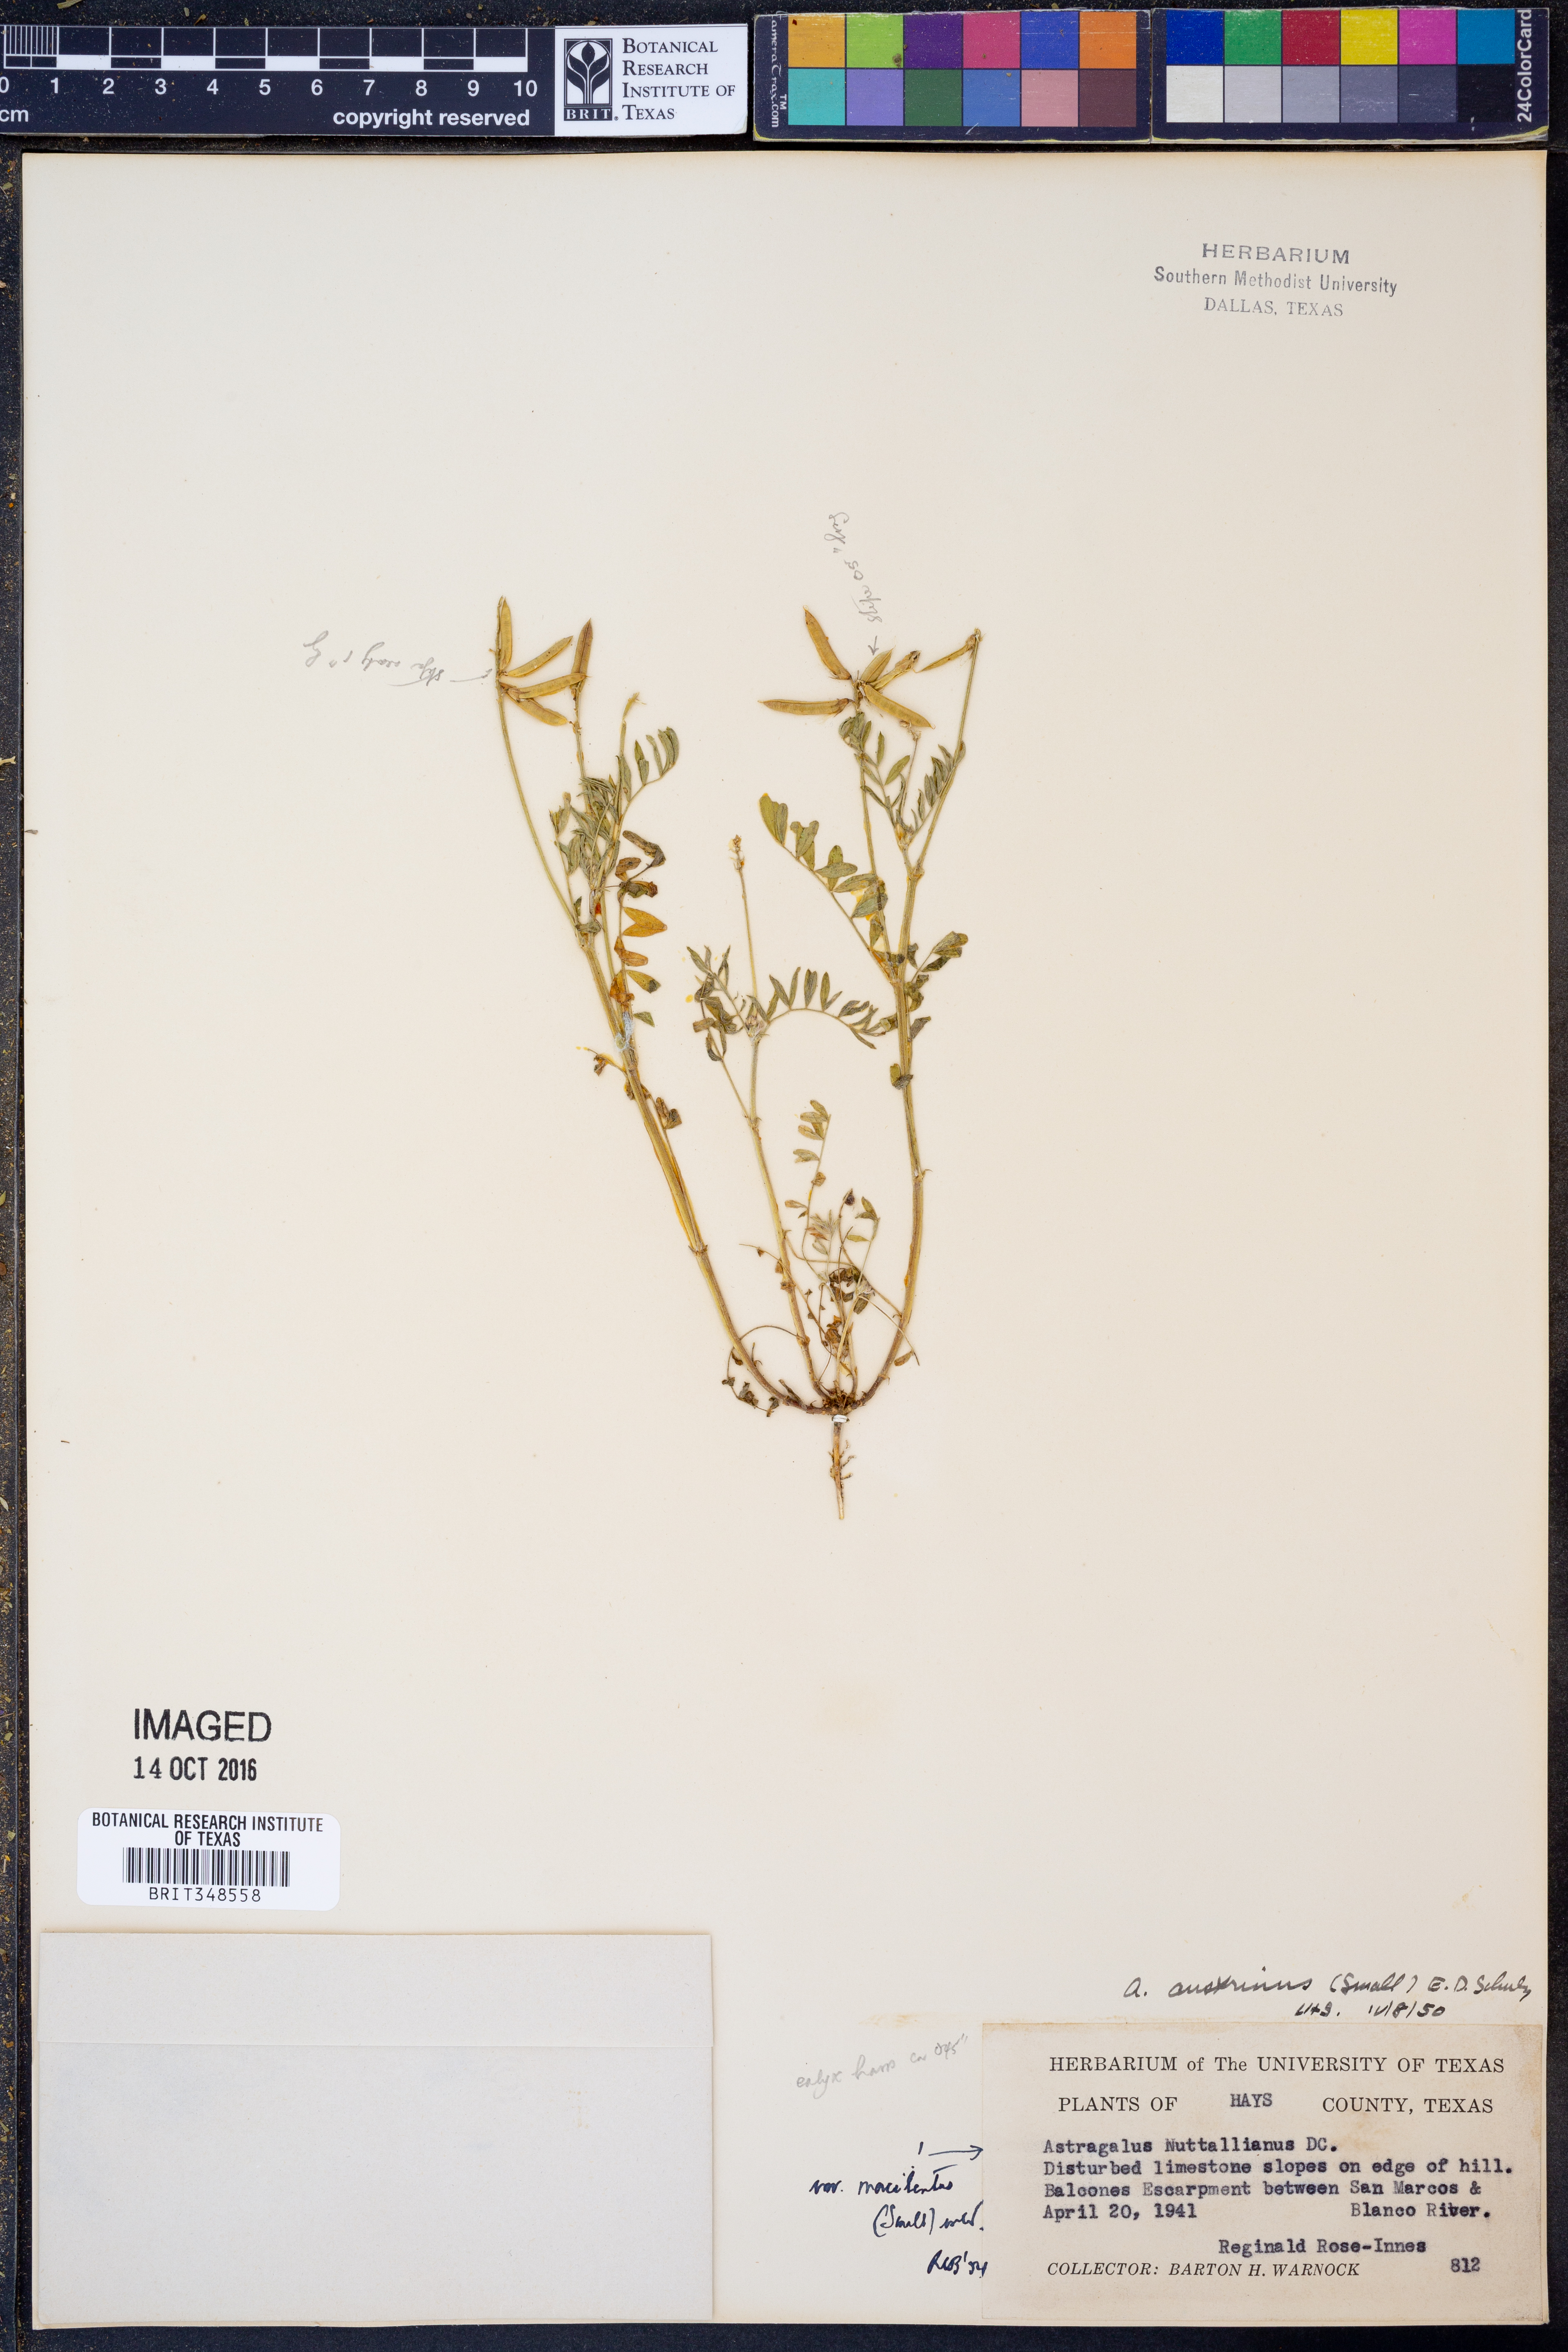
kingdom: Plantae
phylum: Tracheophyta
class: Magnoliopsida
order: Fabales
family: Fabaceae
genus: Astragalus
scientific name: Astragalus nuttallianus
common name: Smallflowered milkvetch
